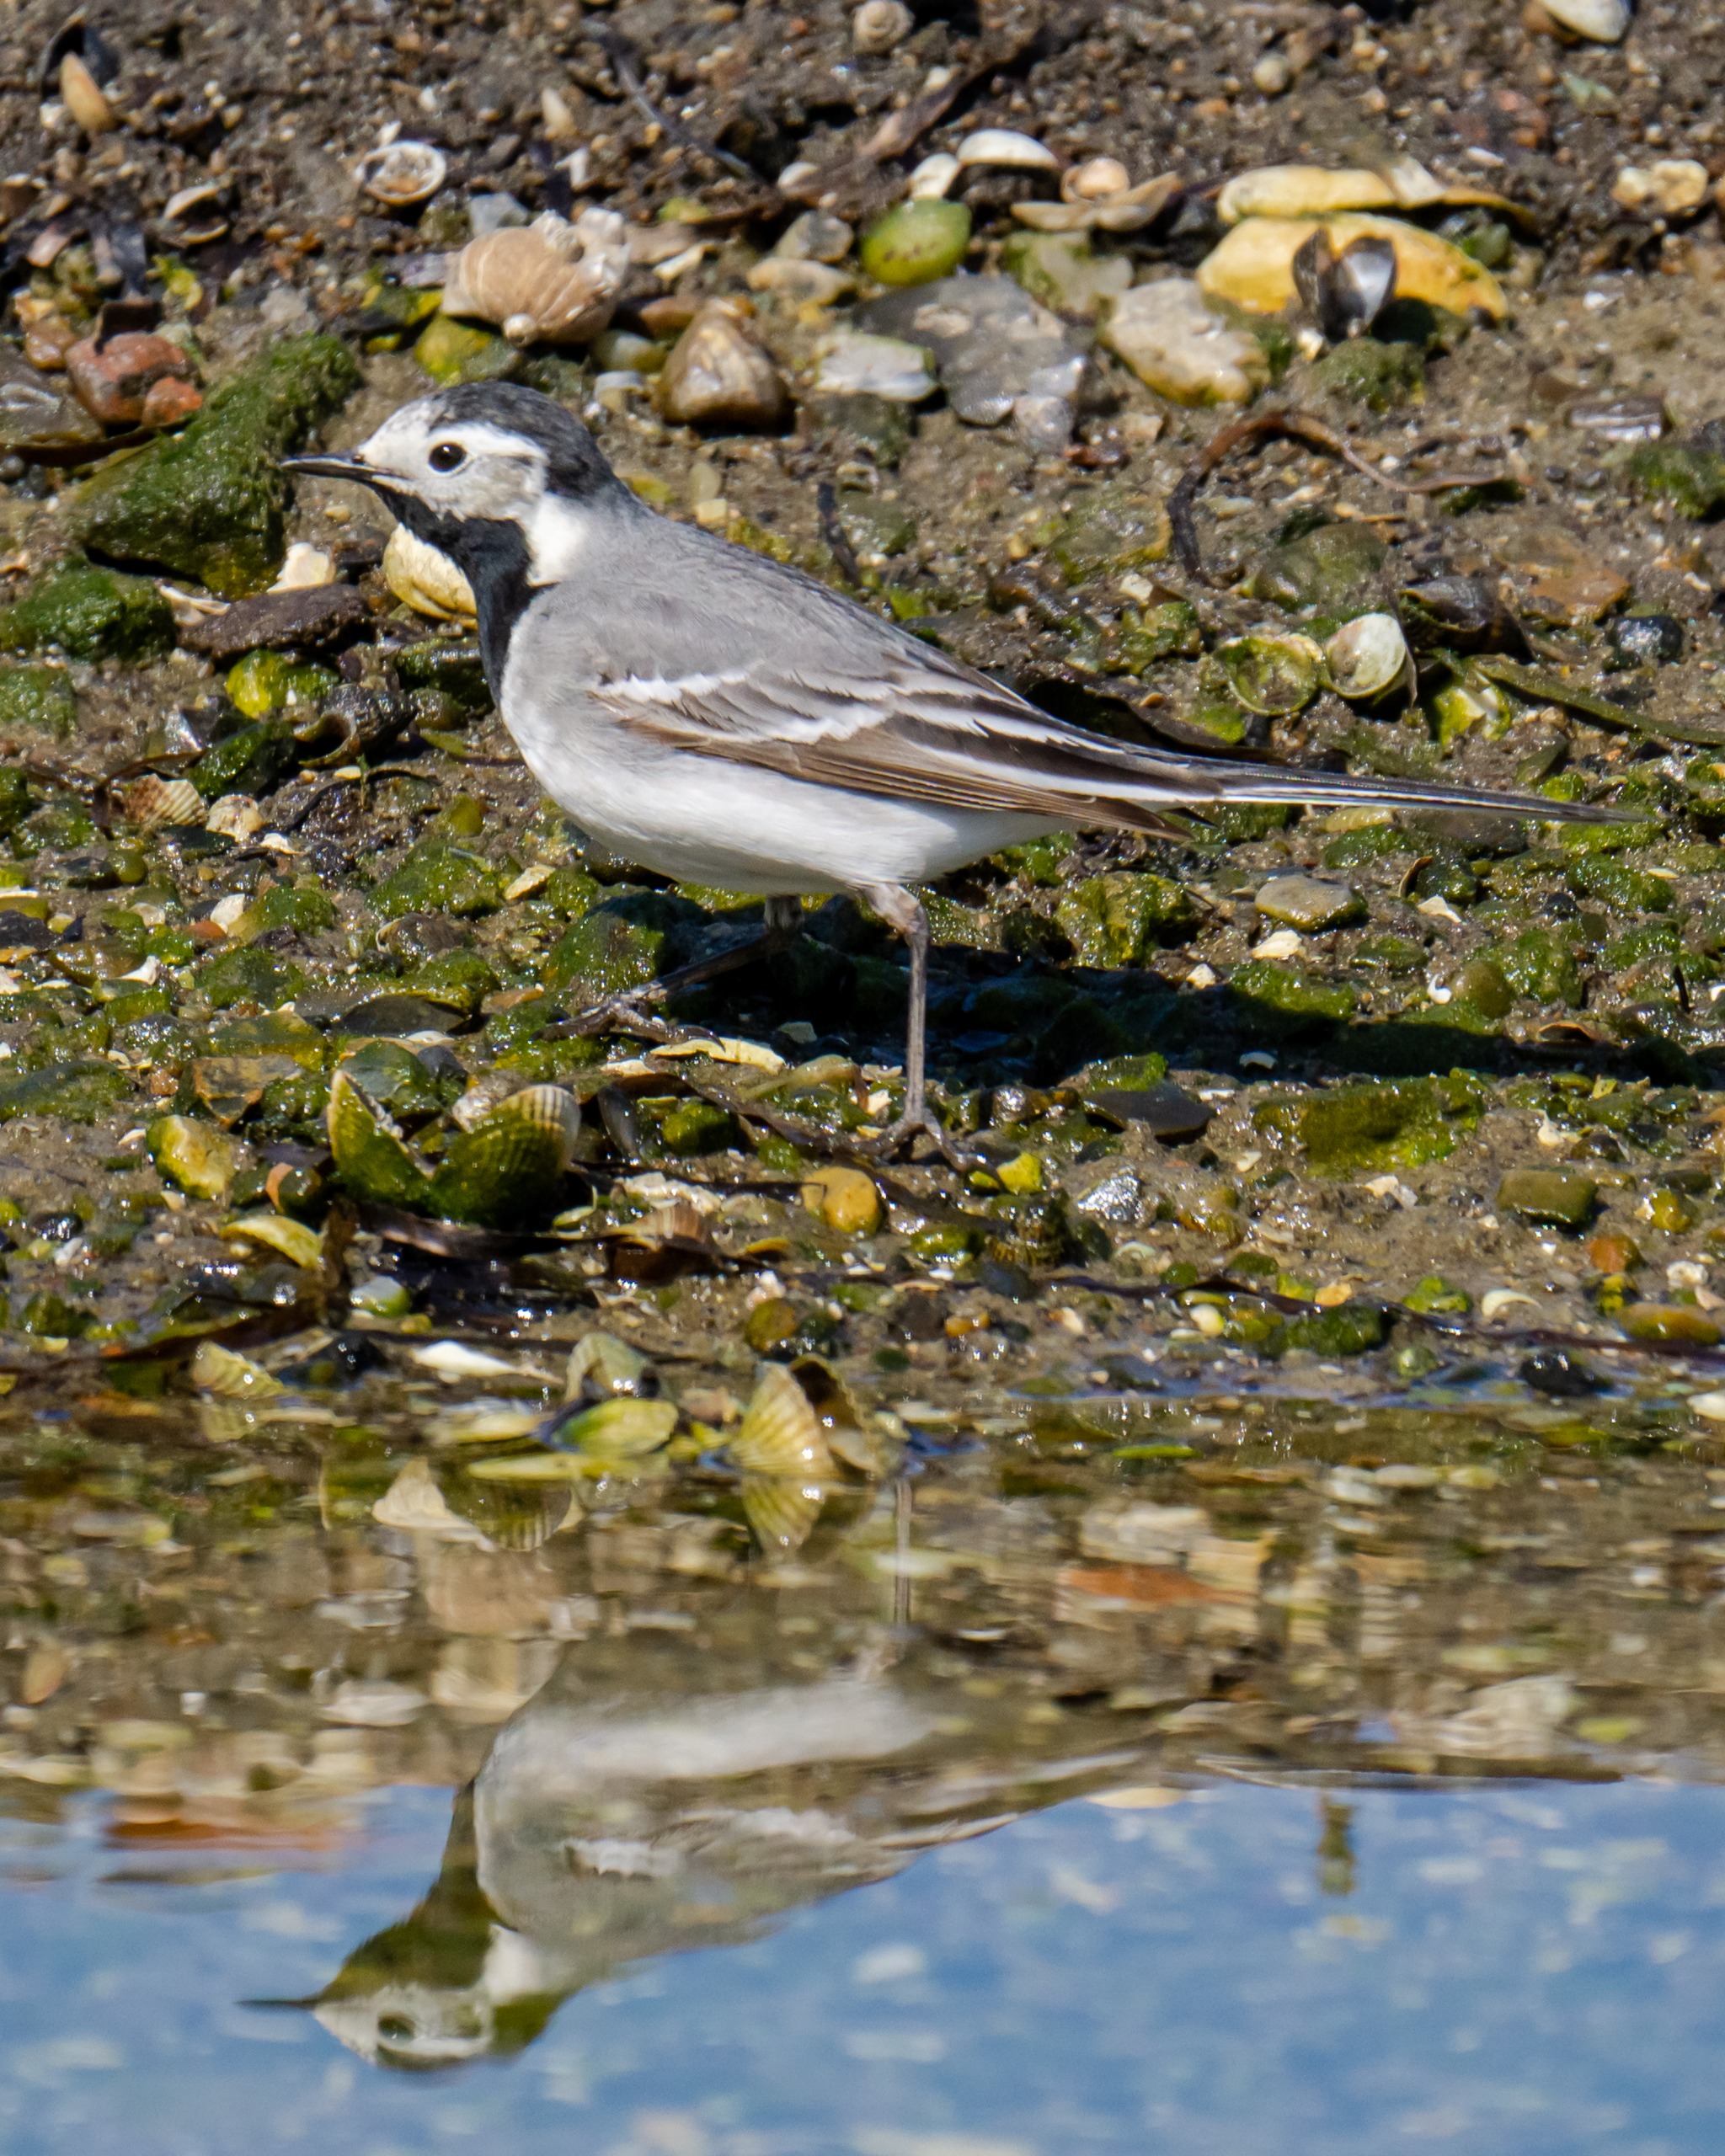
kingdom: Animalia
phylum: Chordata
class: Aves
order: Passeriformes
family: Motacillidae
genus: Motacilla
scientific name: Motacilla alba
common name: Hvid vipstjert
